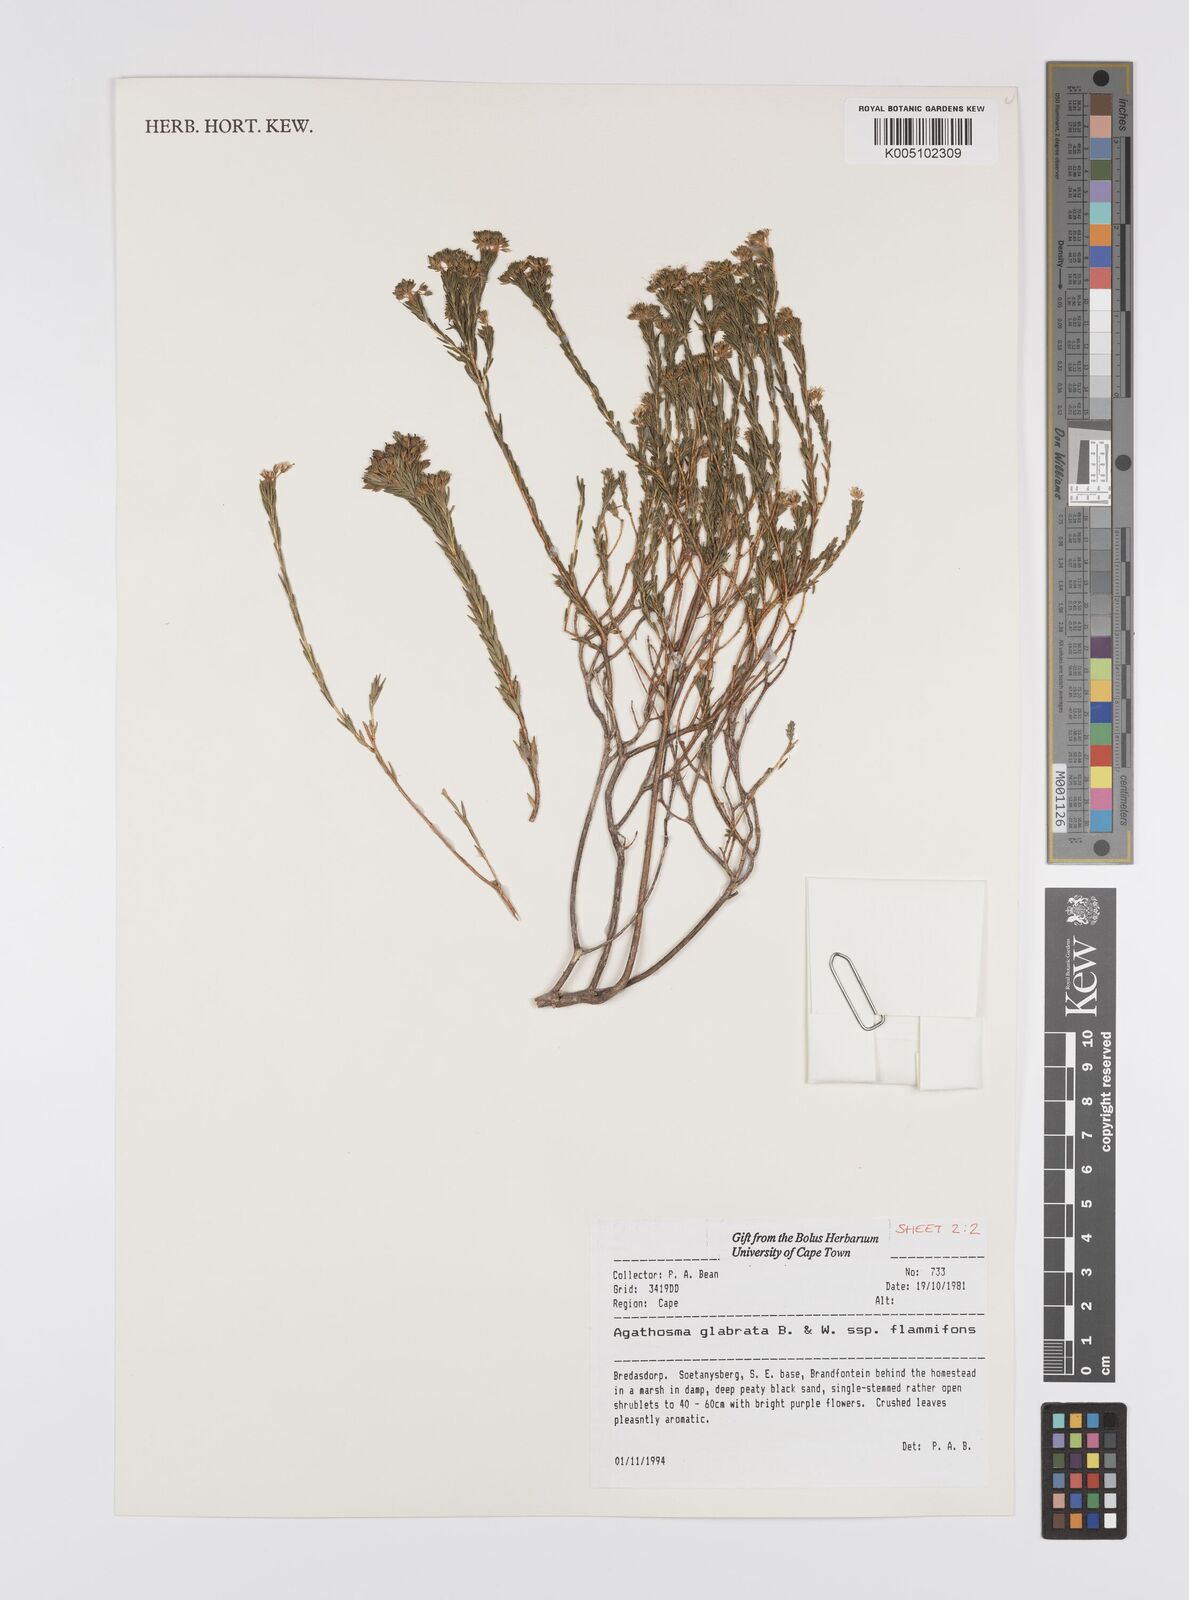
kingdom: Plantae
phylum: Tracheophyta
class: Magnoliopsida
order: Sapindales
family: Rutaceae
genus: Agathosma
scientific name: Agathosma
